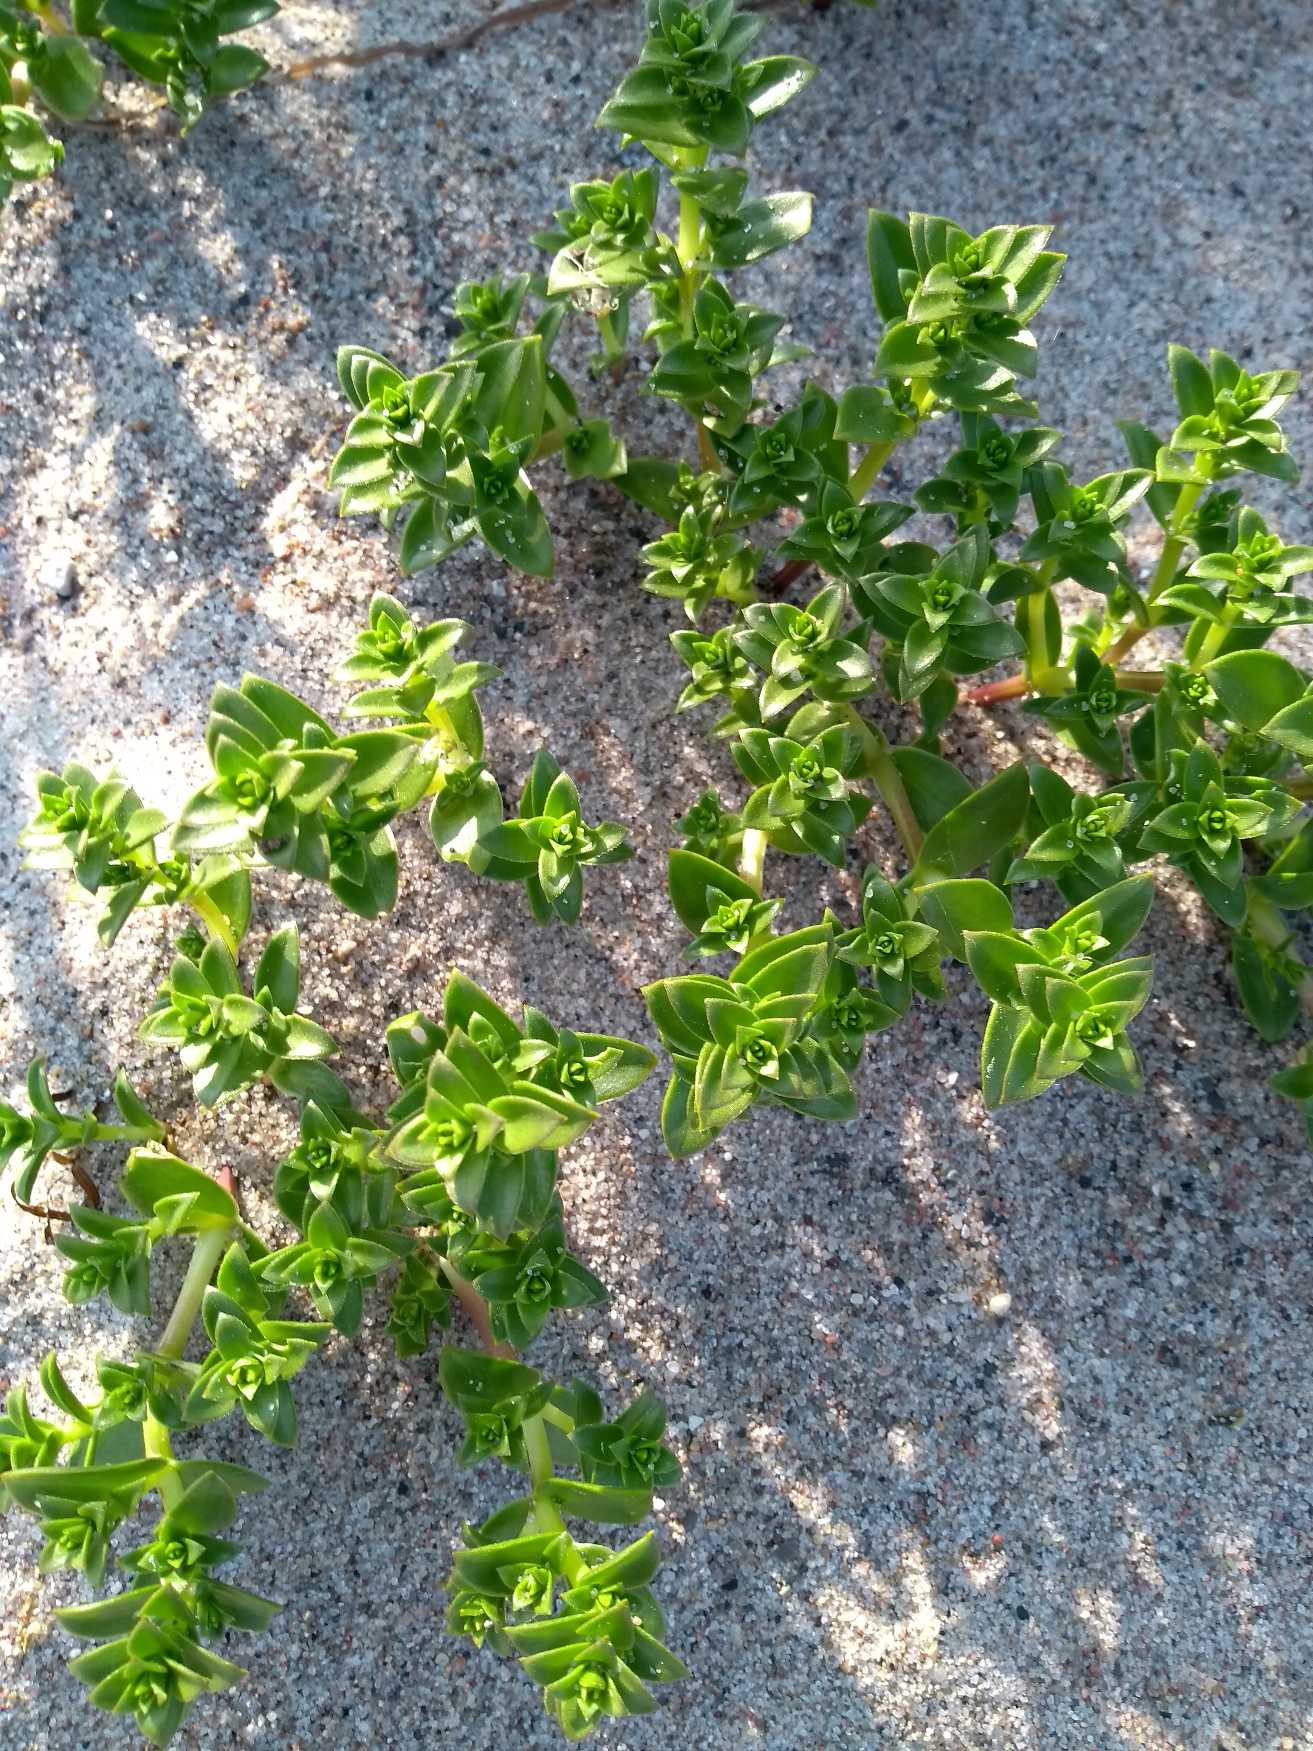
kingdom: Plantae
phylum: Tracheophyta
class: Magnoliopsida
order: Caryophyllales
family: Caryophyllaceae
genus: Honckenya
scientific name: Honckenya peploides
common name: Strandarve
